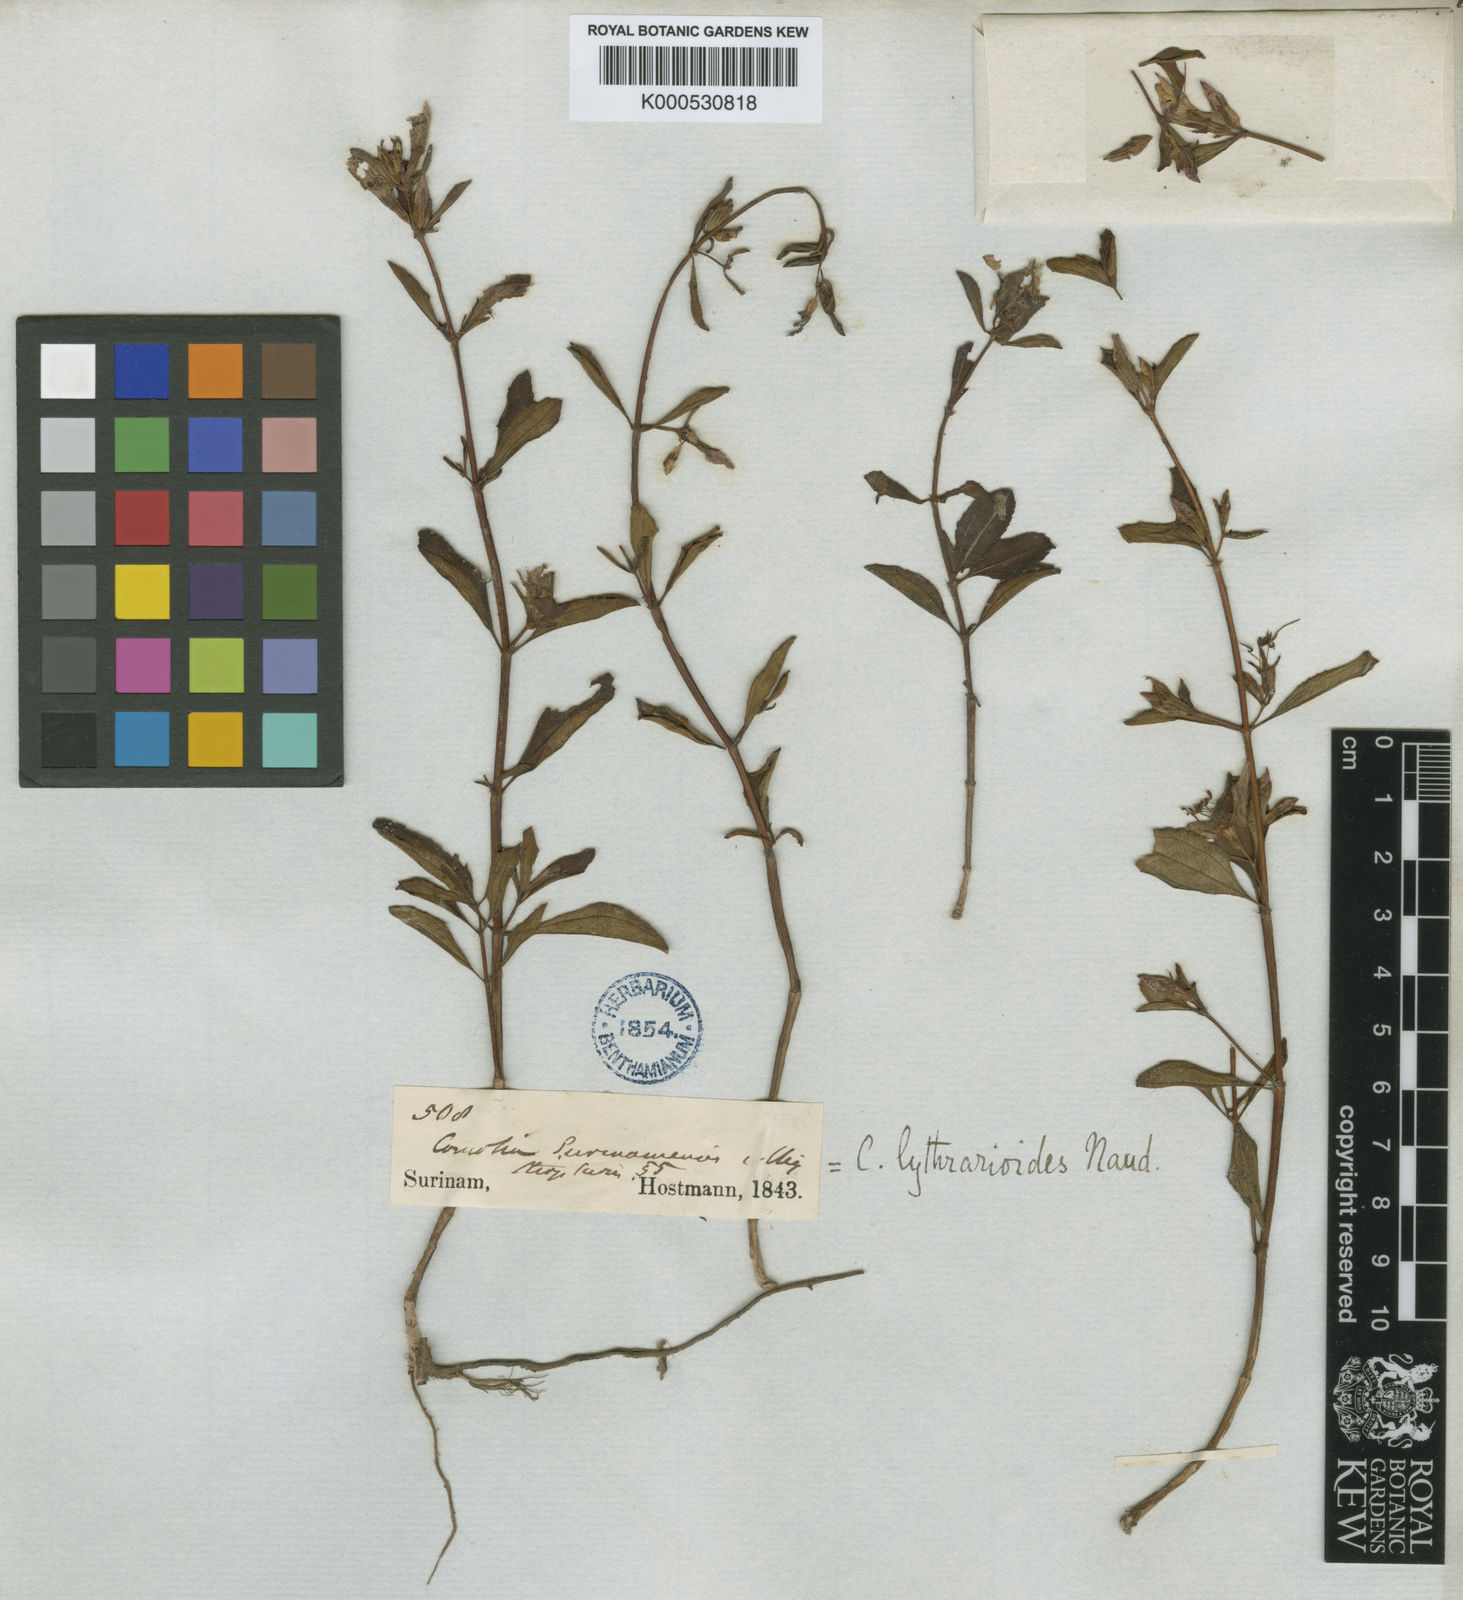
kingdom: Plantae
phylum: Tracheophyta
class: Magnoliopsida
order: Myrtales
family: Melastomataceae
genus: Comolia
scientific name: Comolia villosa
